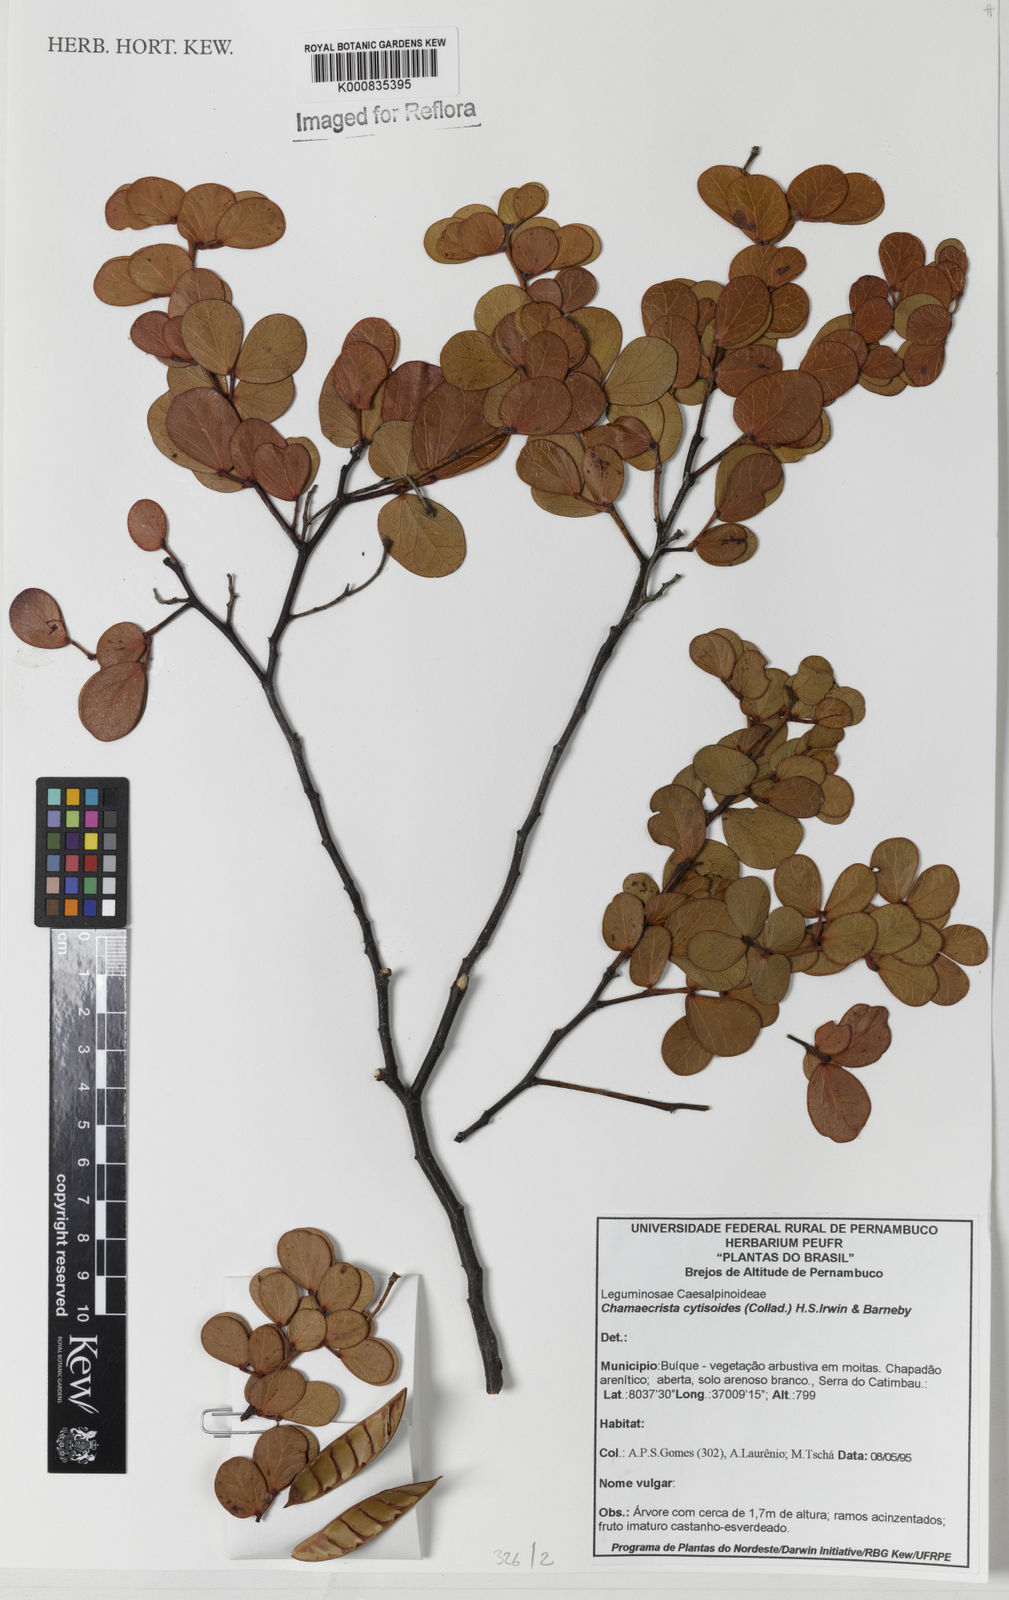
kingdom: Plantae
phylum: Tracheophyta
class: Magnoliopsida
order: Fabales
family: Fabaceae
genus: Chamaecrista
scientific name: Chamaecrista brachystachya
